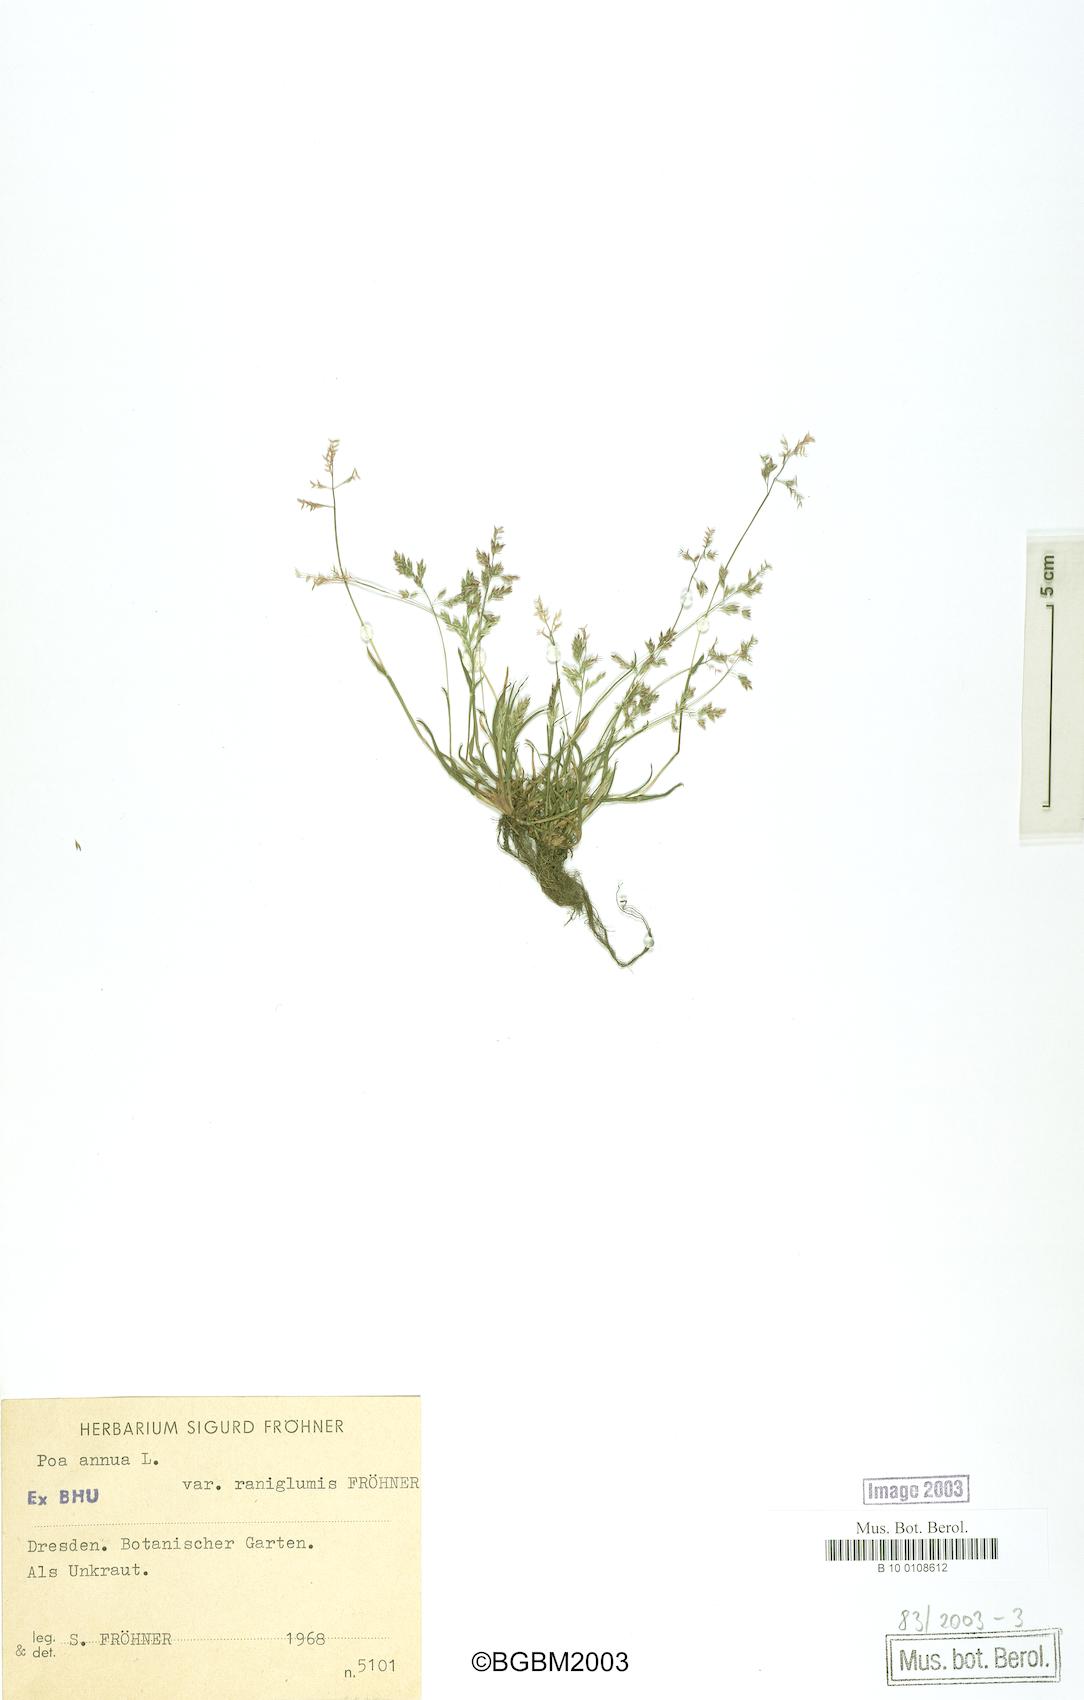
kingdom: Plantae
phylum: Tracheophyta
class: Liliopsida
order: Poales
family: Poaceae
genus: Poa
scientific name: Poa annua
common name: Annual bluegrass
